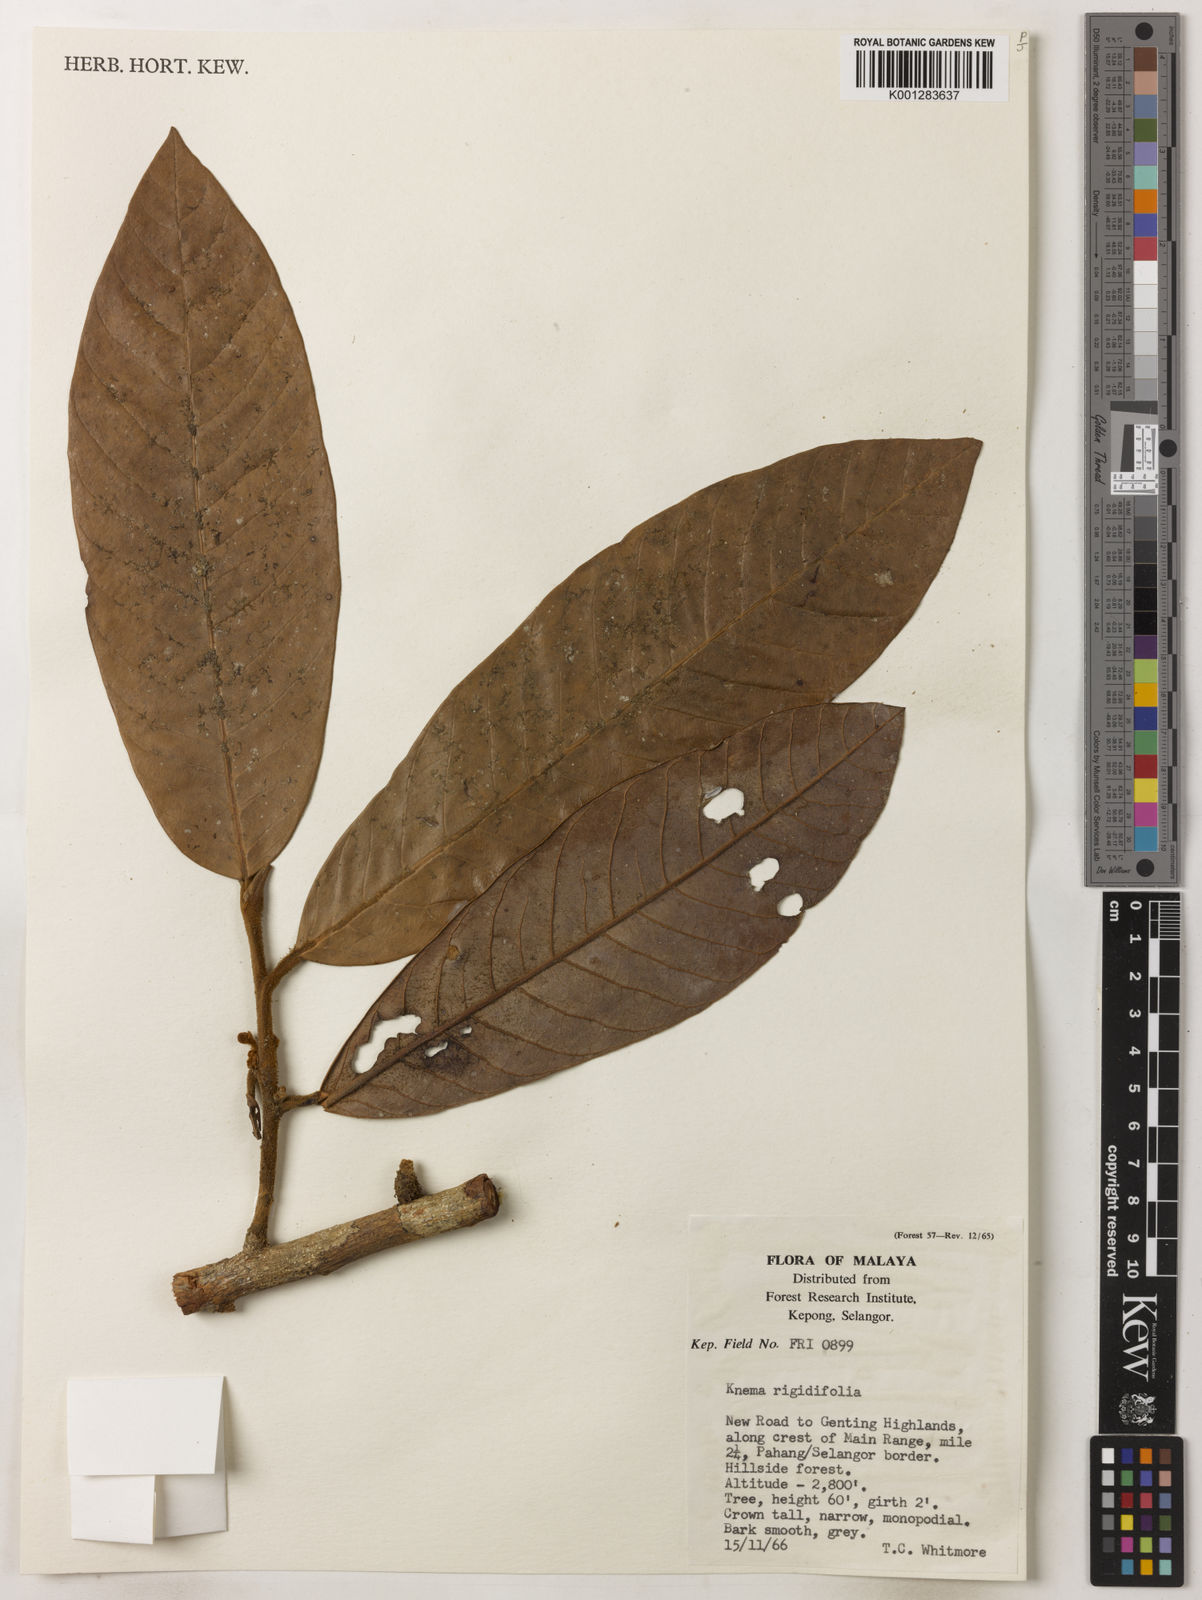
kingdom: Plantae
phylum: Tracheophyta
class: Magnoliopsida
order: Magnoliales
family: Myristicaceae
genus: Knema
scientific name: Knema rigidifolia
